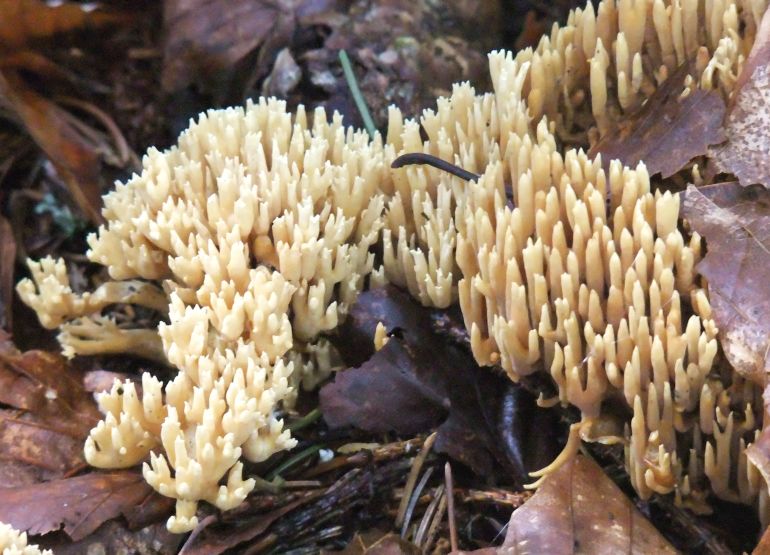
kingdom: Fungi
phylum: Basidiomycota
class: Agaricomycetes
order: Gomphales
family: Gomphaceae
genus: Phaeoclavulina
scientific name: Phaeoclavulina eumorpha
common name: gran-koralsvamp
